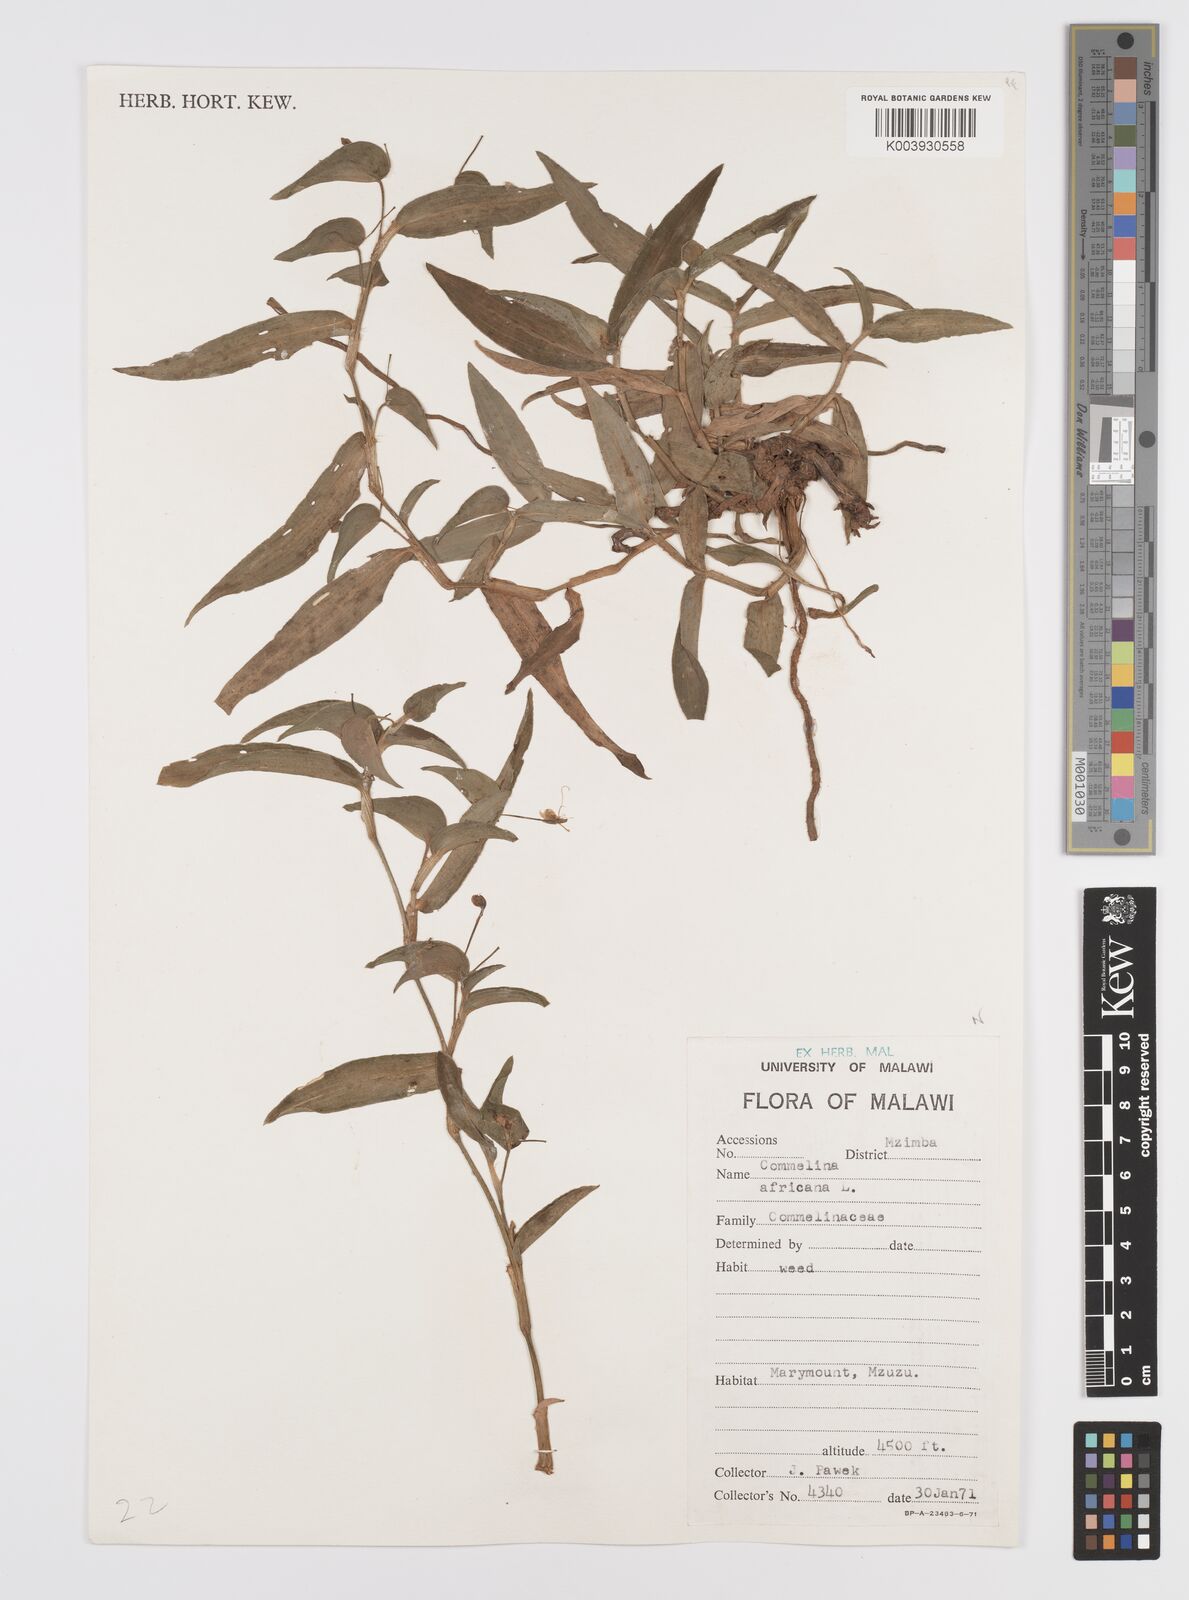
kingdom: Plantae
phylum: Tracheophyta
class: Liliopsida
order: Commelinales
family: Commelinaceae
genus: Commelina
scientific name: Commelina africana
